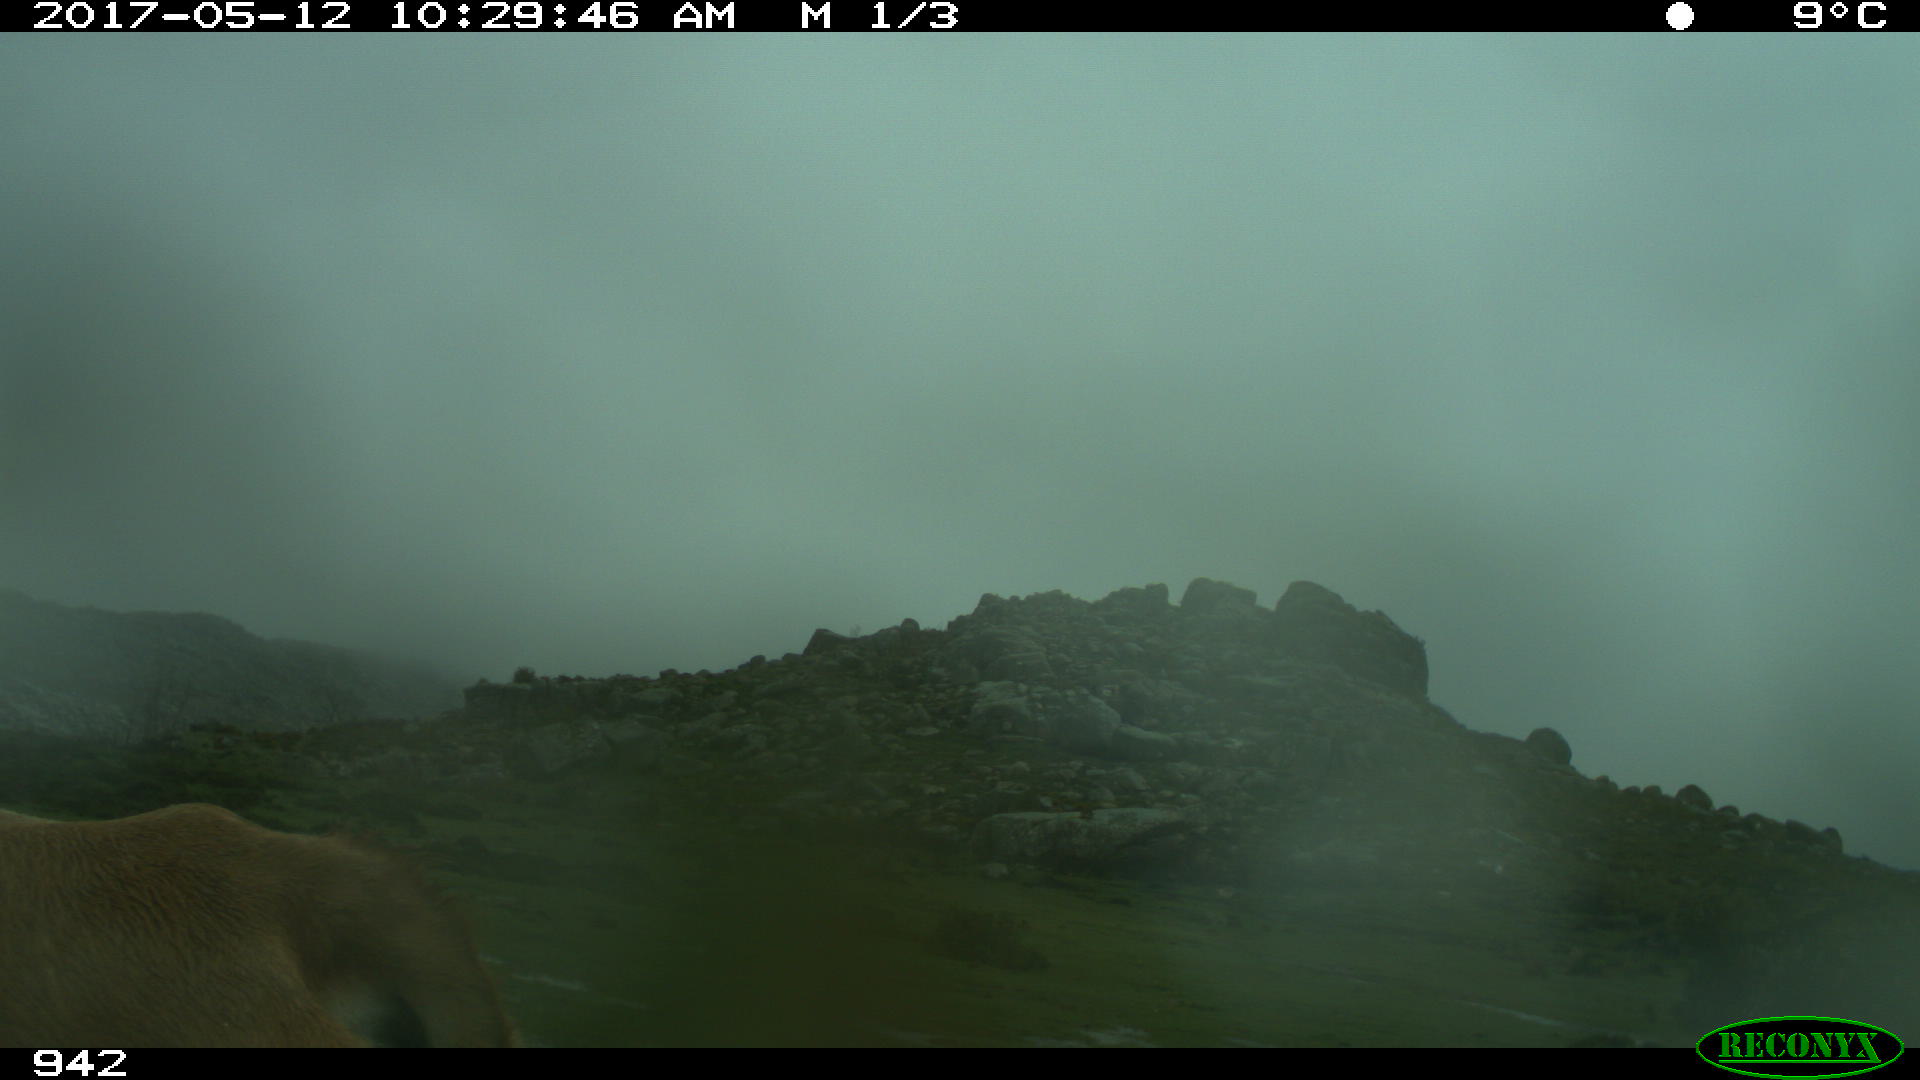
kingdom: Animalia
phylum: Chordata
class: Mammalia
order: Artiodactyla
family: Bovidae
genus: Bos
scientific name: Bos taurus
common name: Domesticated cattle
